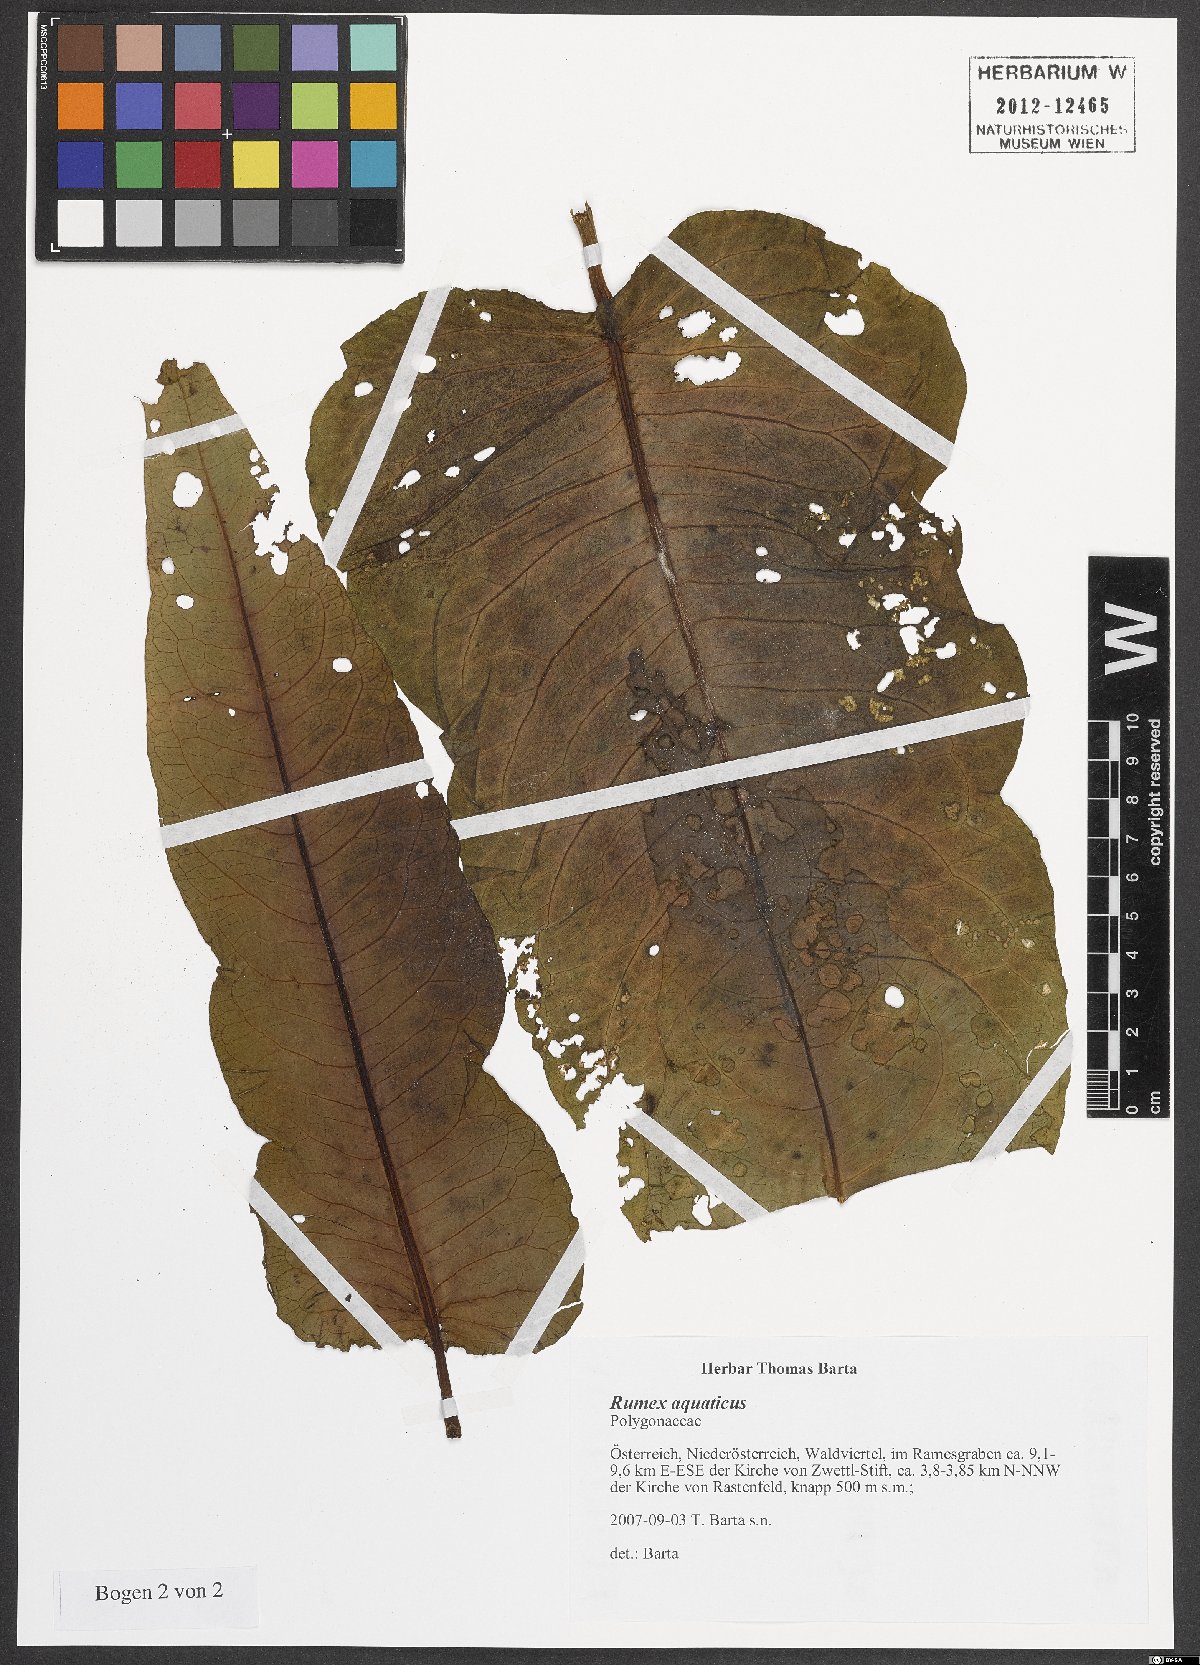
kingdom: Plantae
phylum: Tracheophyta
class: Magnoliopsida
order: Caryophyllales
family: Polygonaceae
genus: Rumex
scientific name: Rumex aquaticus
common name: Scottish dock
